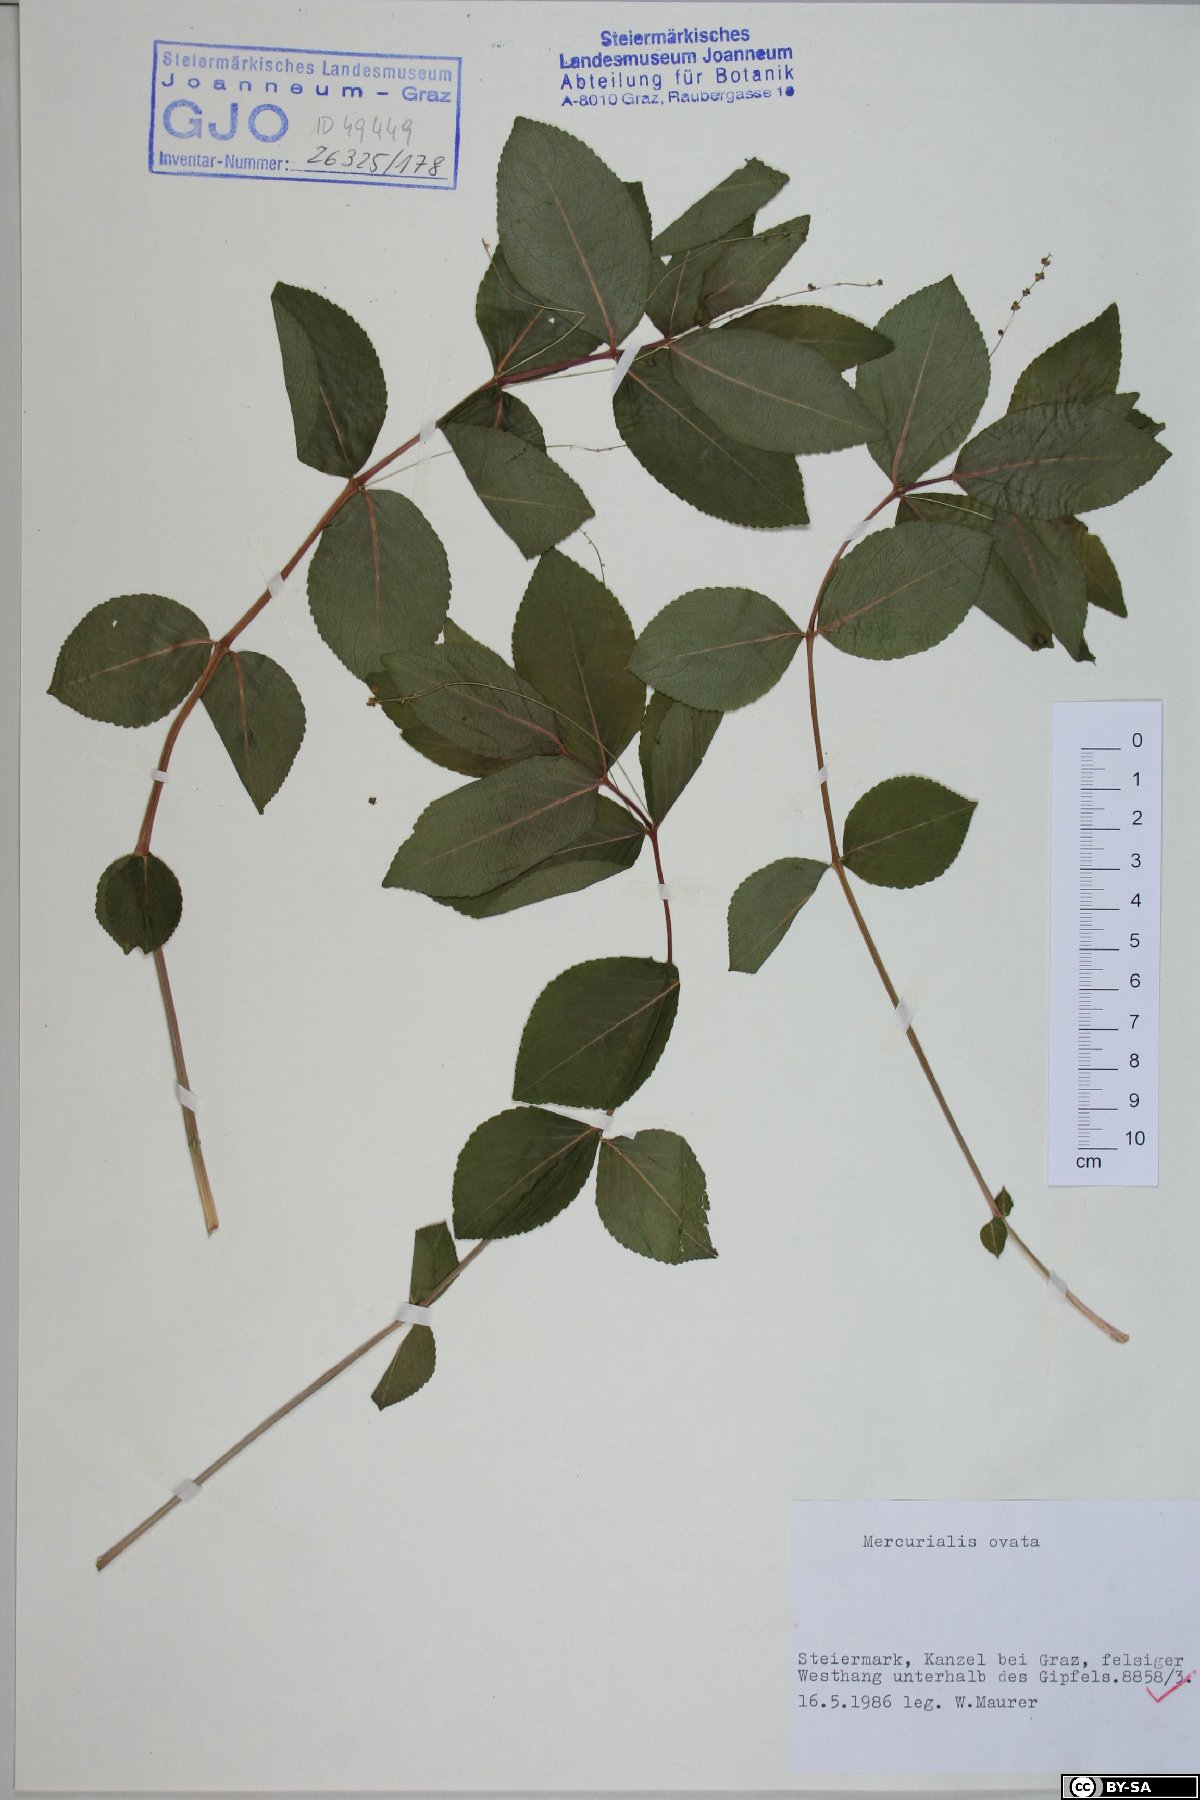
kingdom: Plantae
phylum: Tracheophyta
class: Magnoliopsida
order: Malpighiales
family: Euphorbiaceae
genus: Mercurialis
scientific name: Mercurialis ovata
